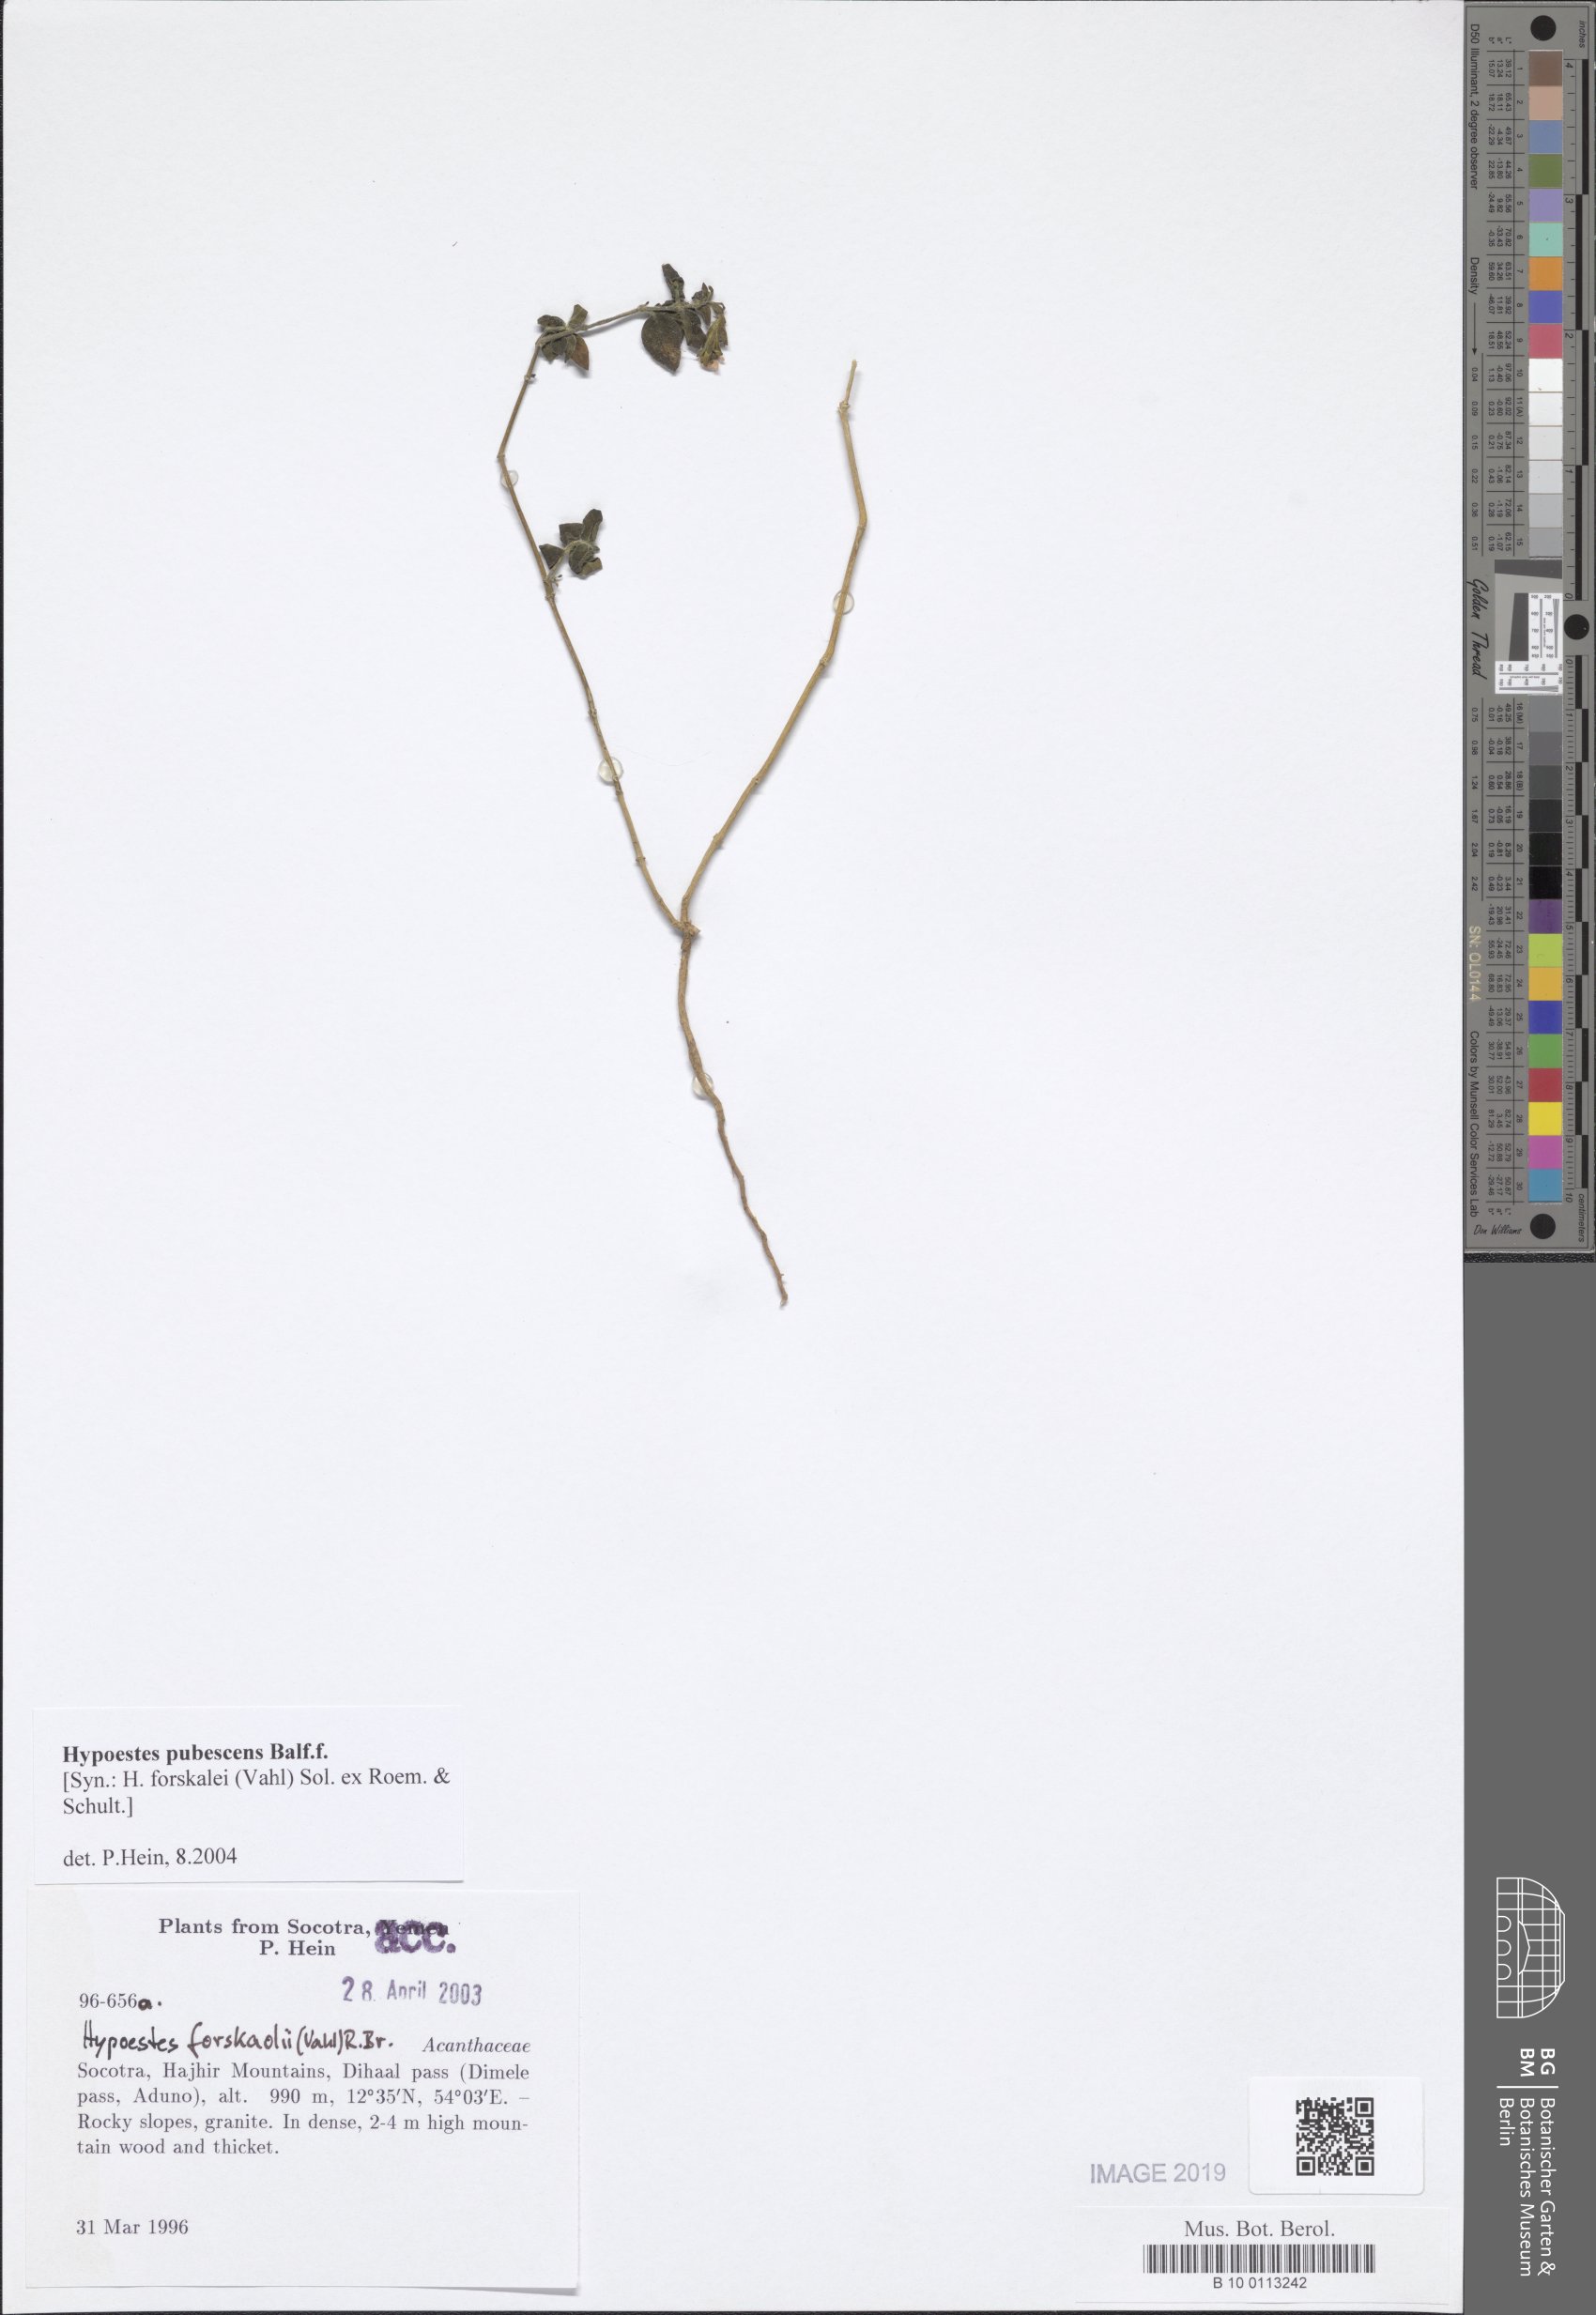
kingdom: Plantae
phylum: Tracheophyta
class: Magnoliopsida
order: Lamiales
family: Acanthaceae
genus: Hypoestes
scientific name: Hypoestes pubescens
